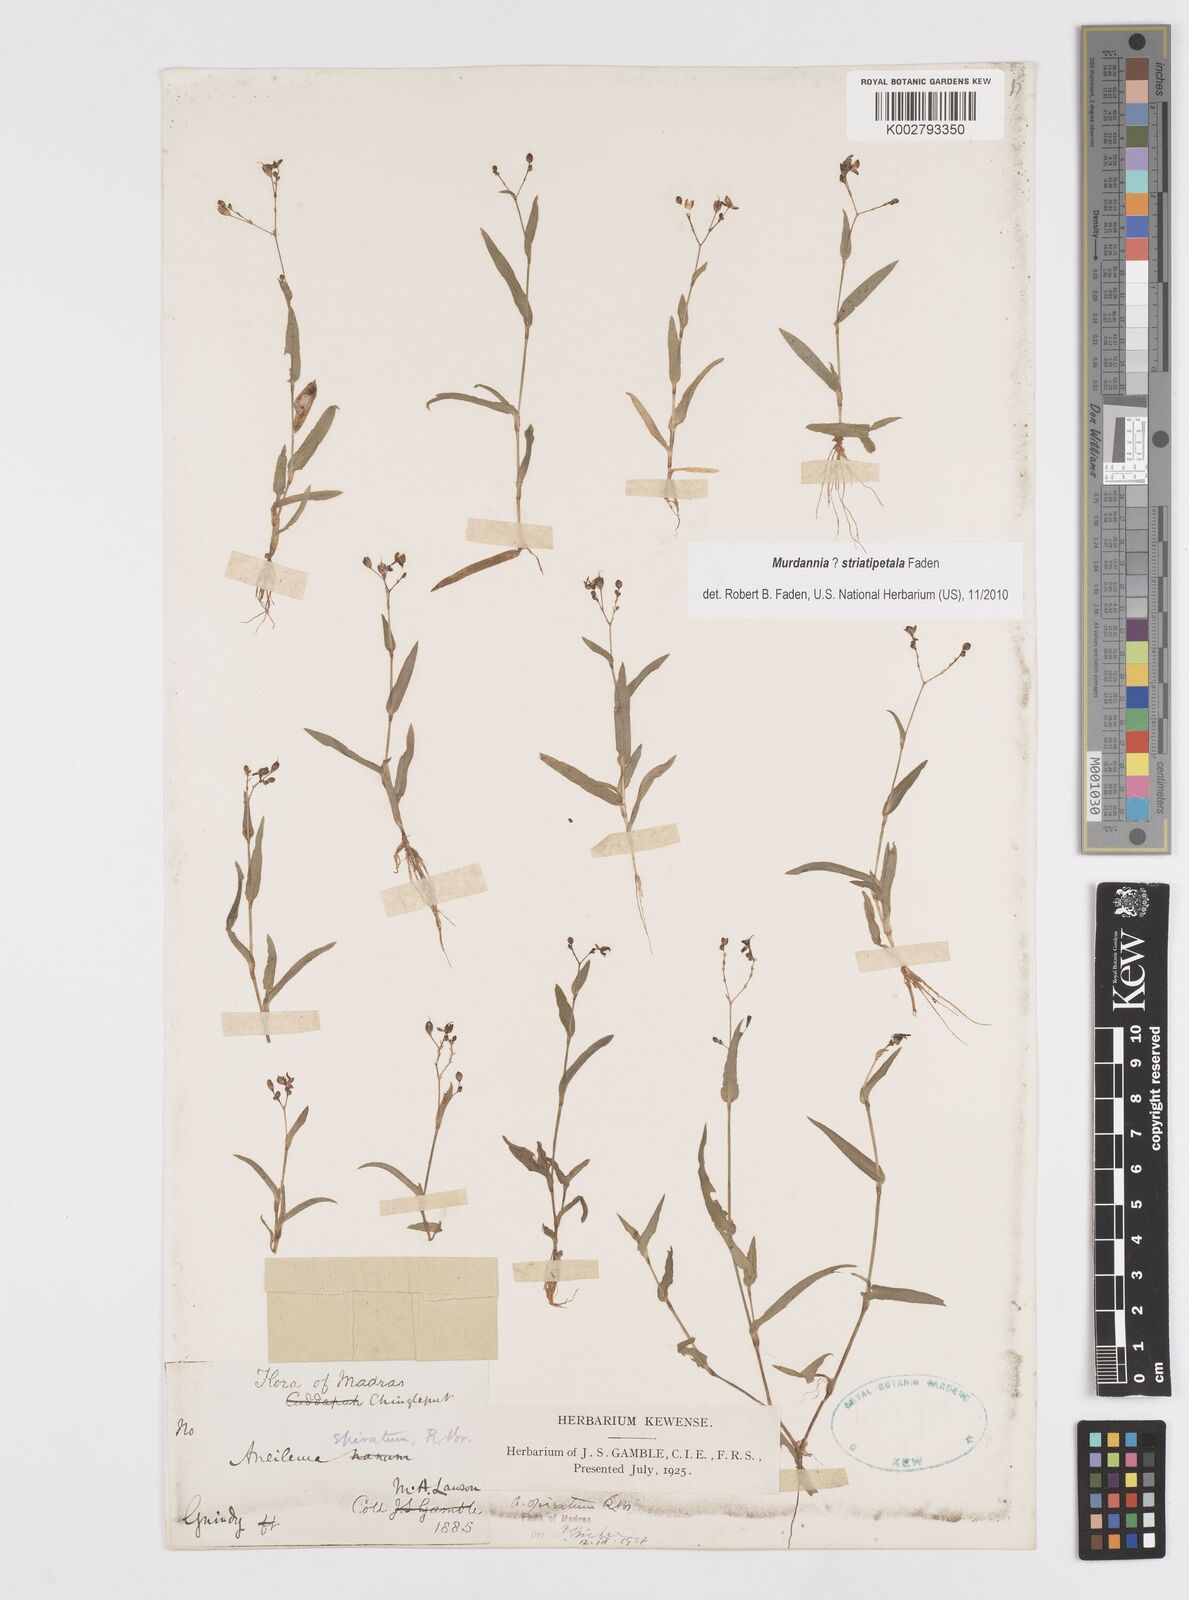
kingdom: Plantae
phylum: Tracheophyta
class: Liliopsida
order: Commelinales
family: Commelinaceae
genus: Murdannia
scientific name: Murdannia striatipetala
